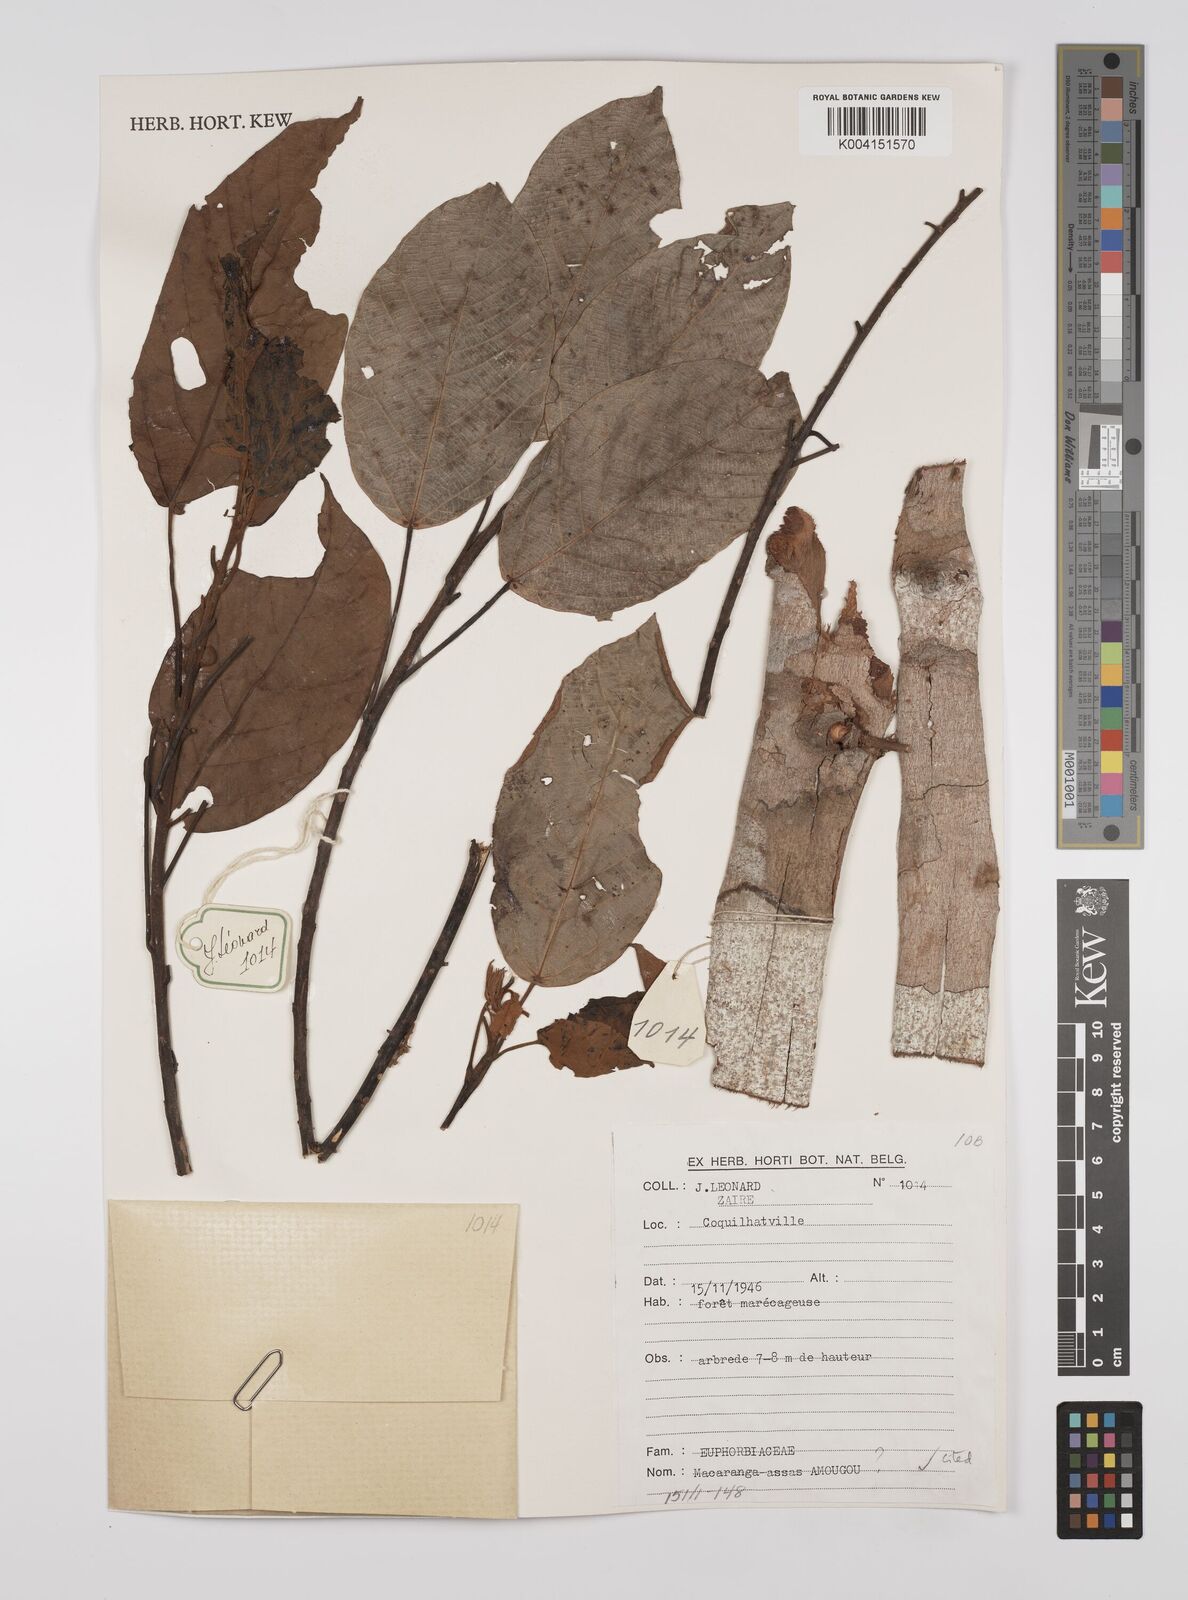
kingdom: Plantae
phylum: Tracheophyta
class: Magnoliopsida
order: Malpighiales
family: Euphorbiaceae
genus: Macaranga
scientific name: Macaranga assas
